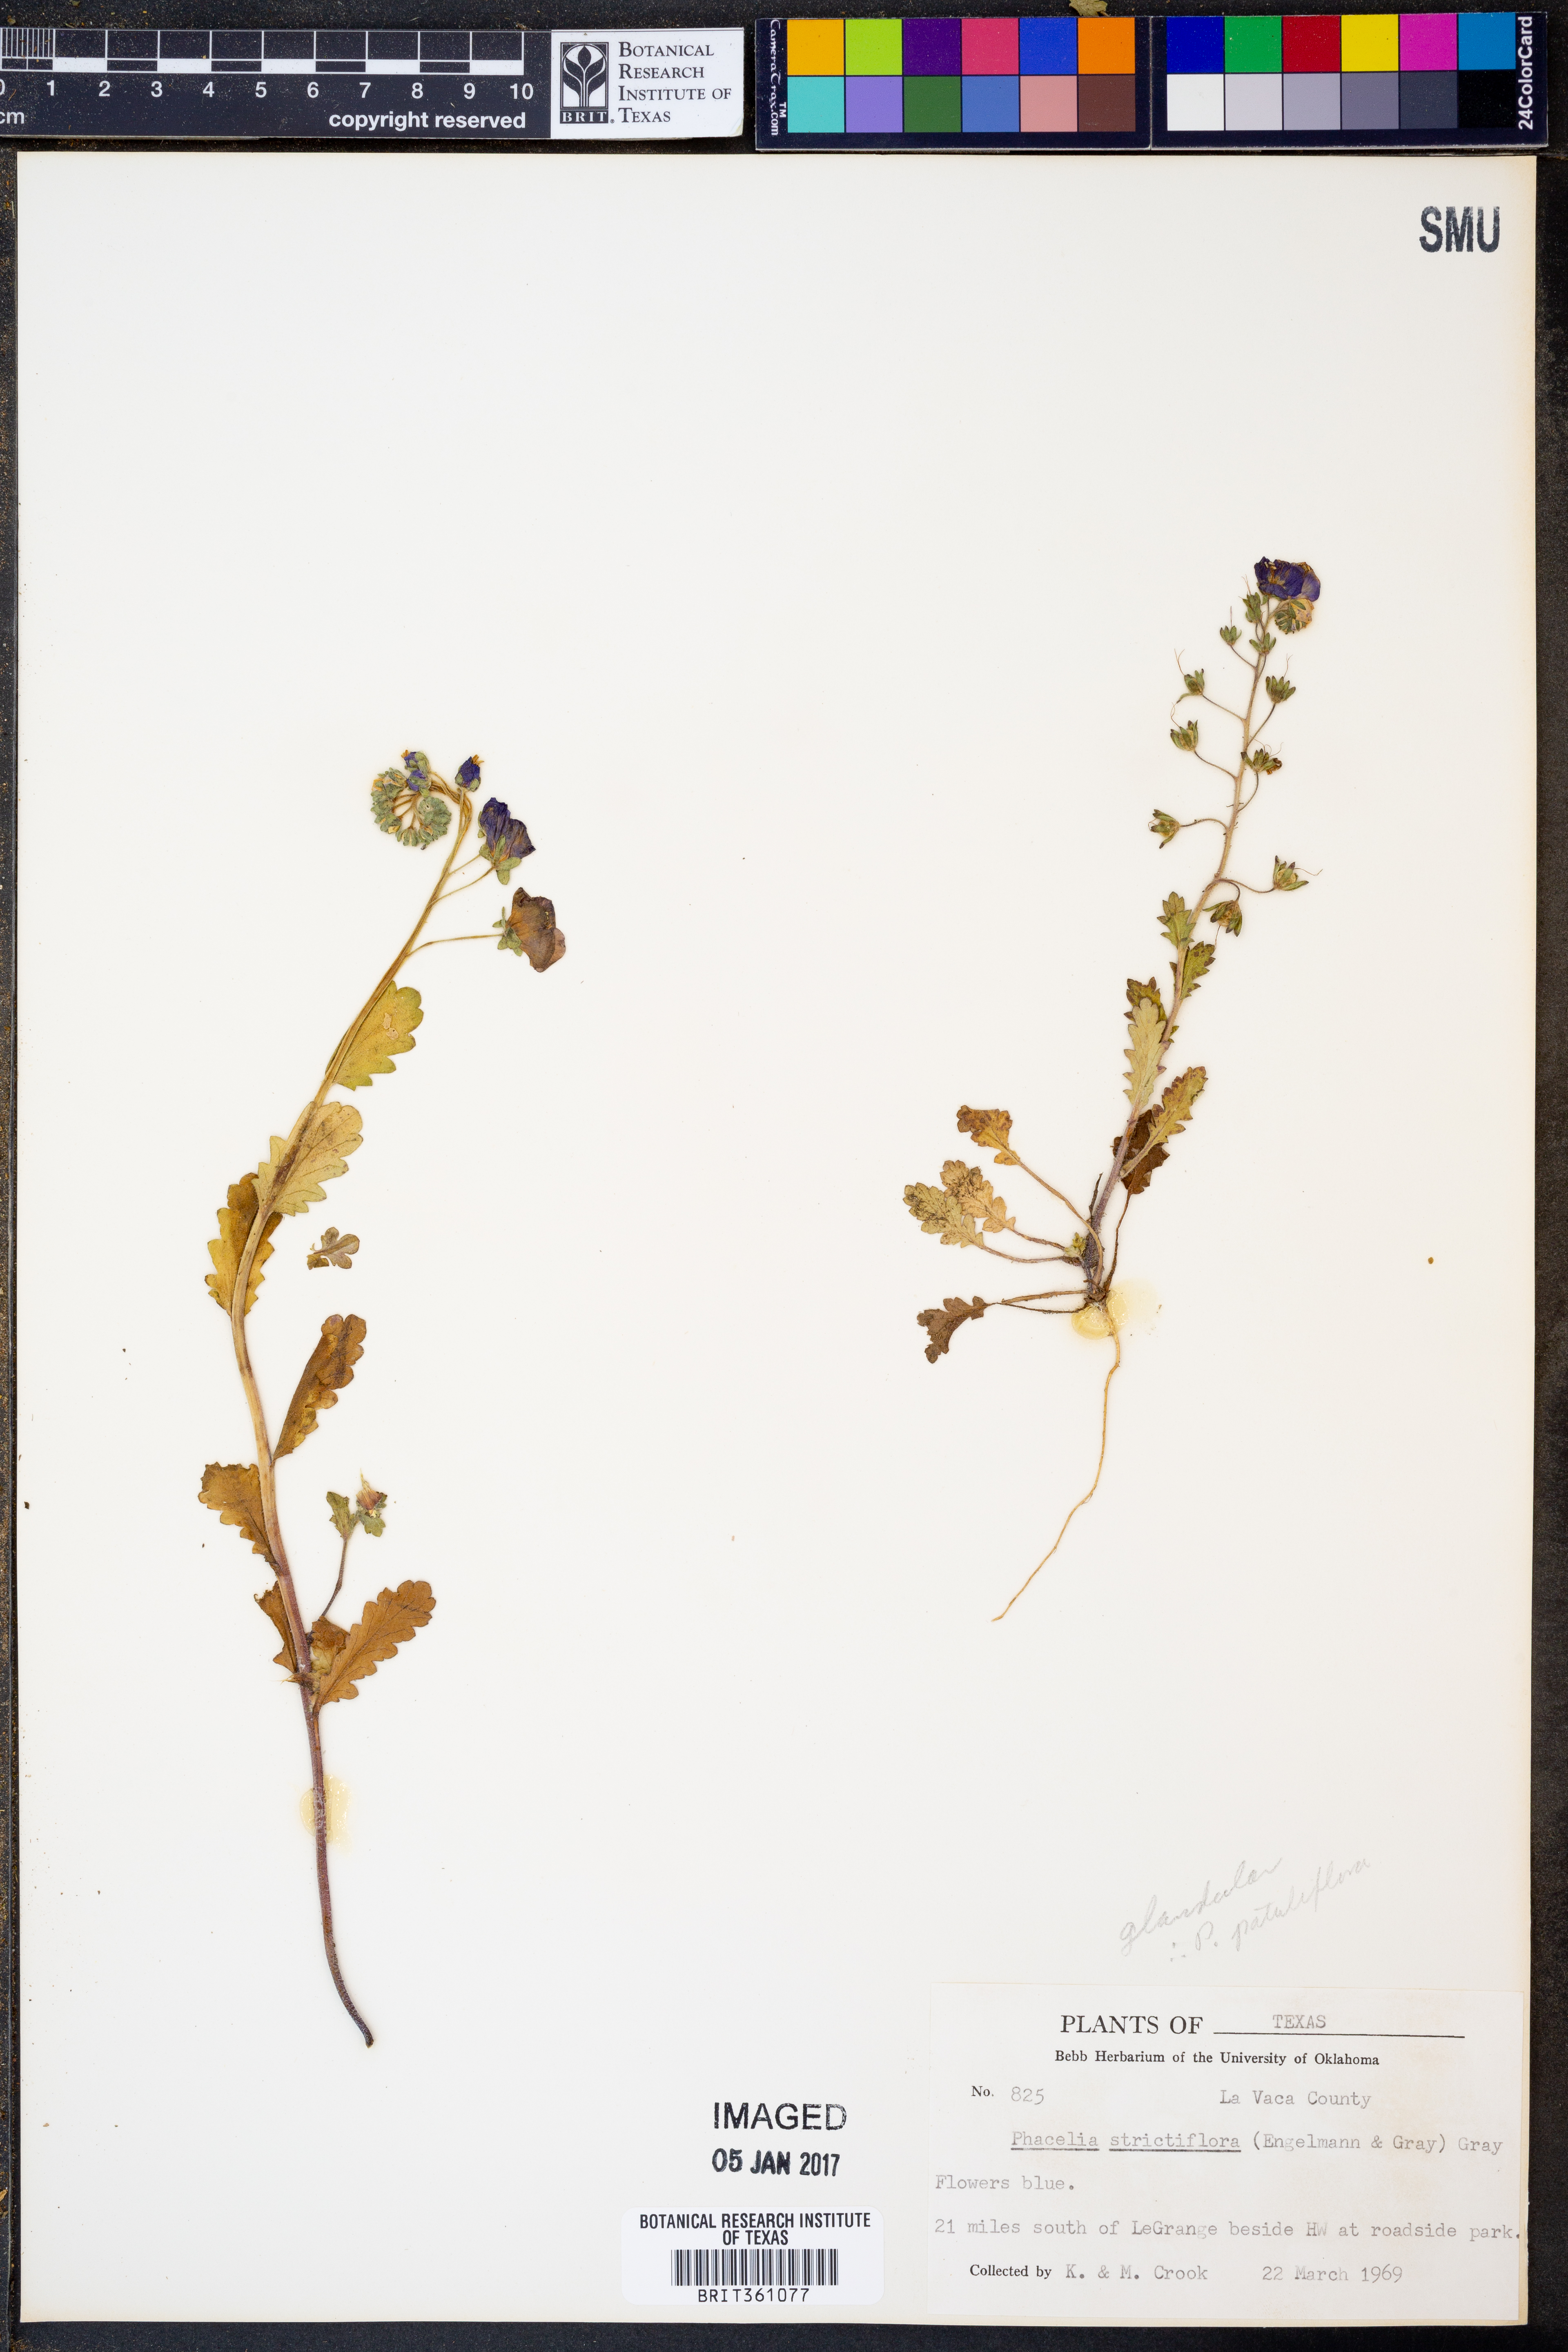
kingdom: Plantae
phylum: Tracheophyta
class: Magnoliopsida
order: Boraginales
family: Hydrophyllaceae
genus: Phacelia
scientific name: Phacelia strictiflora
